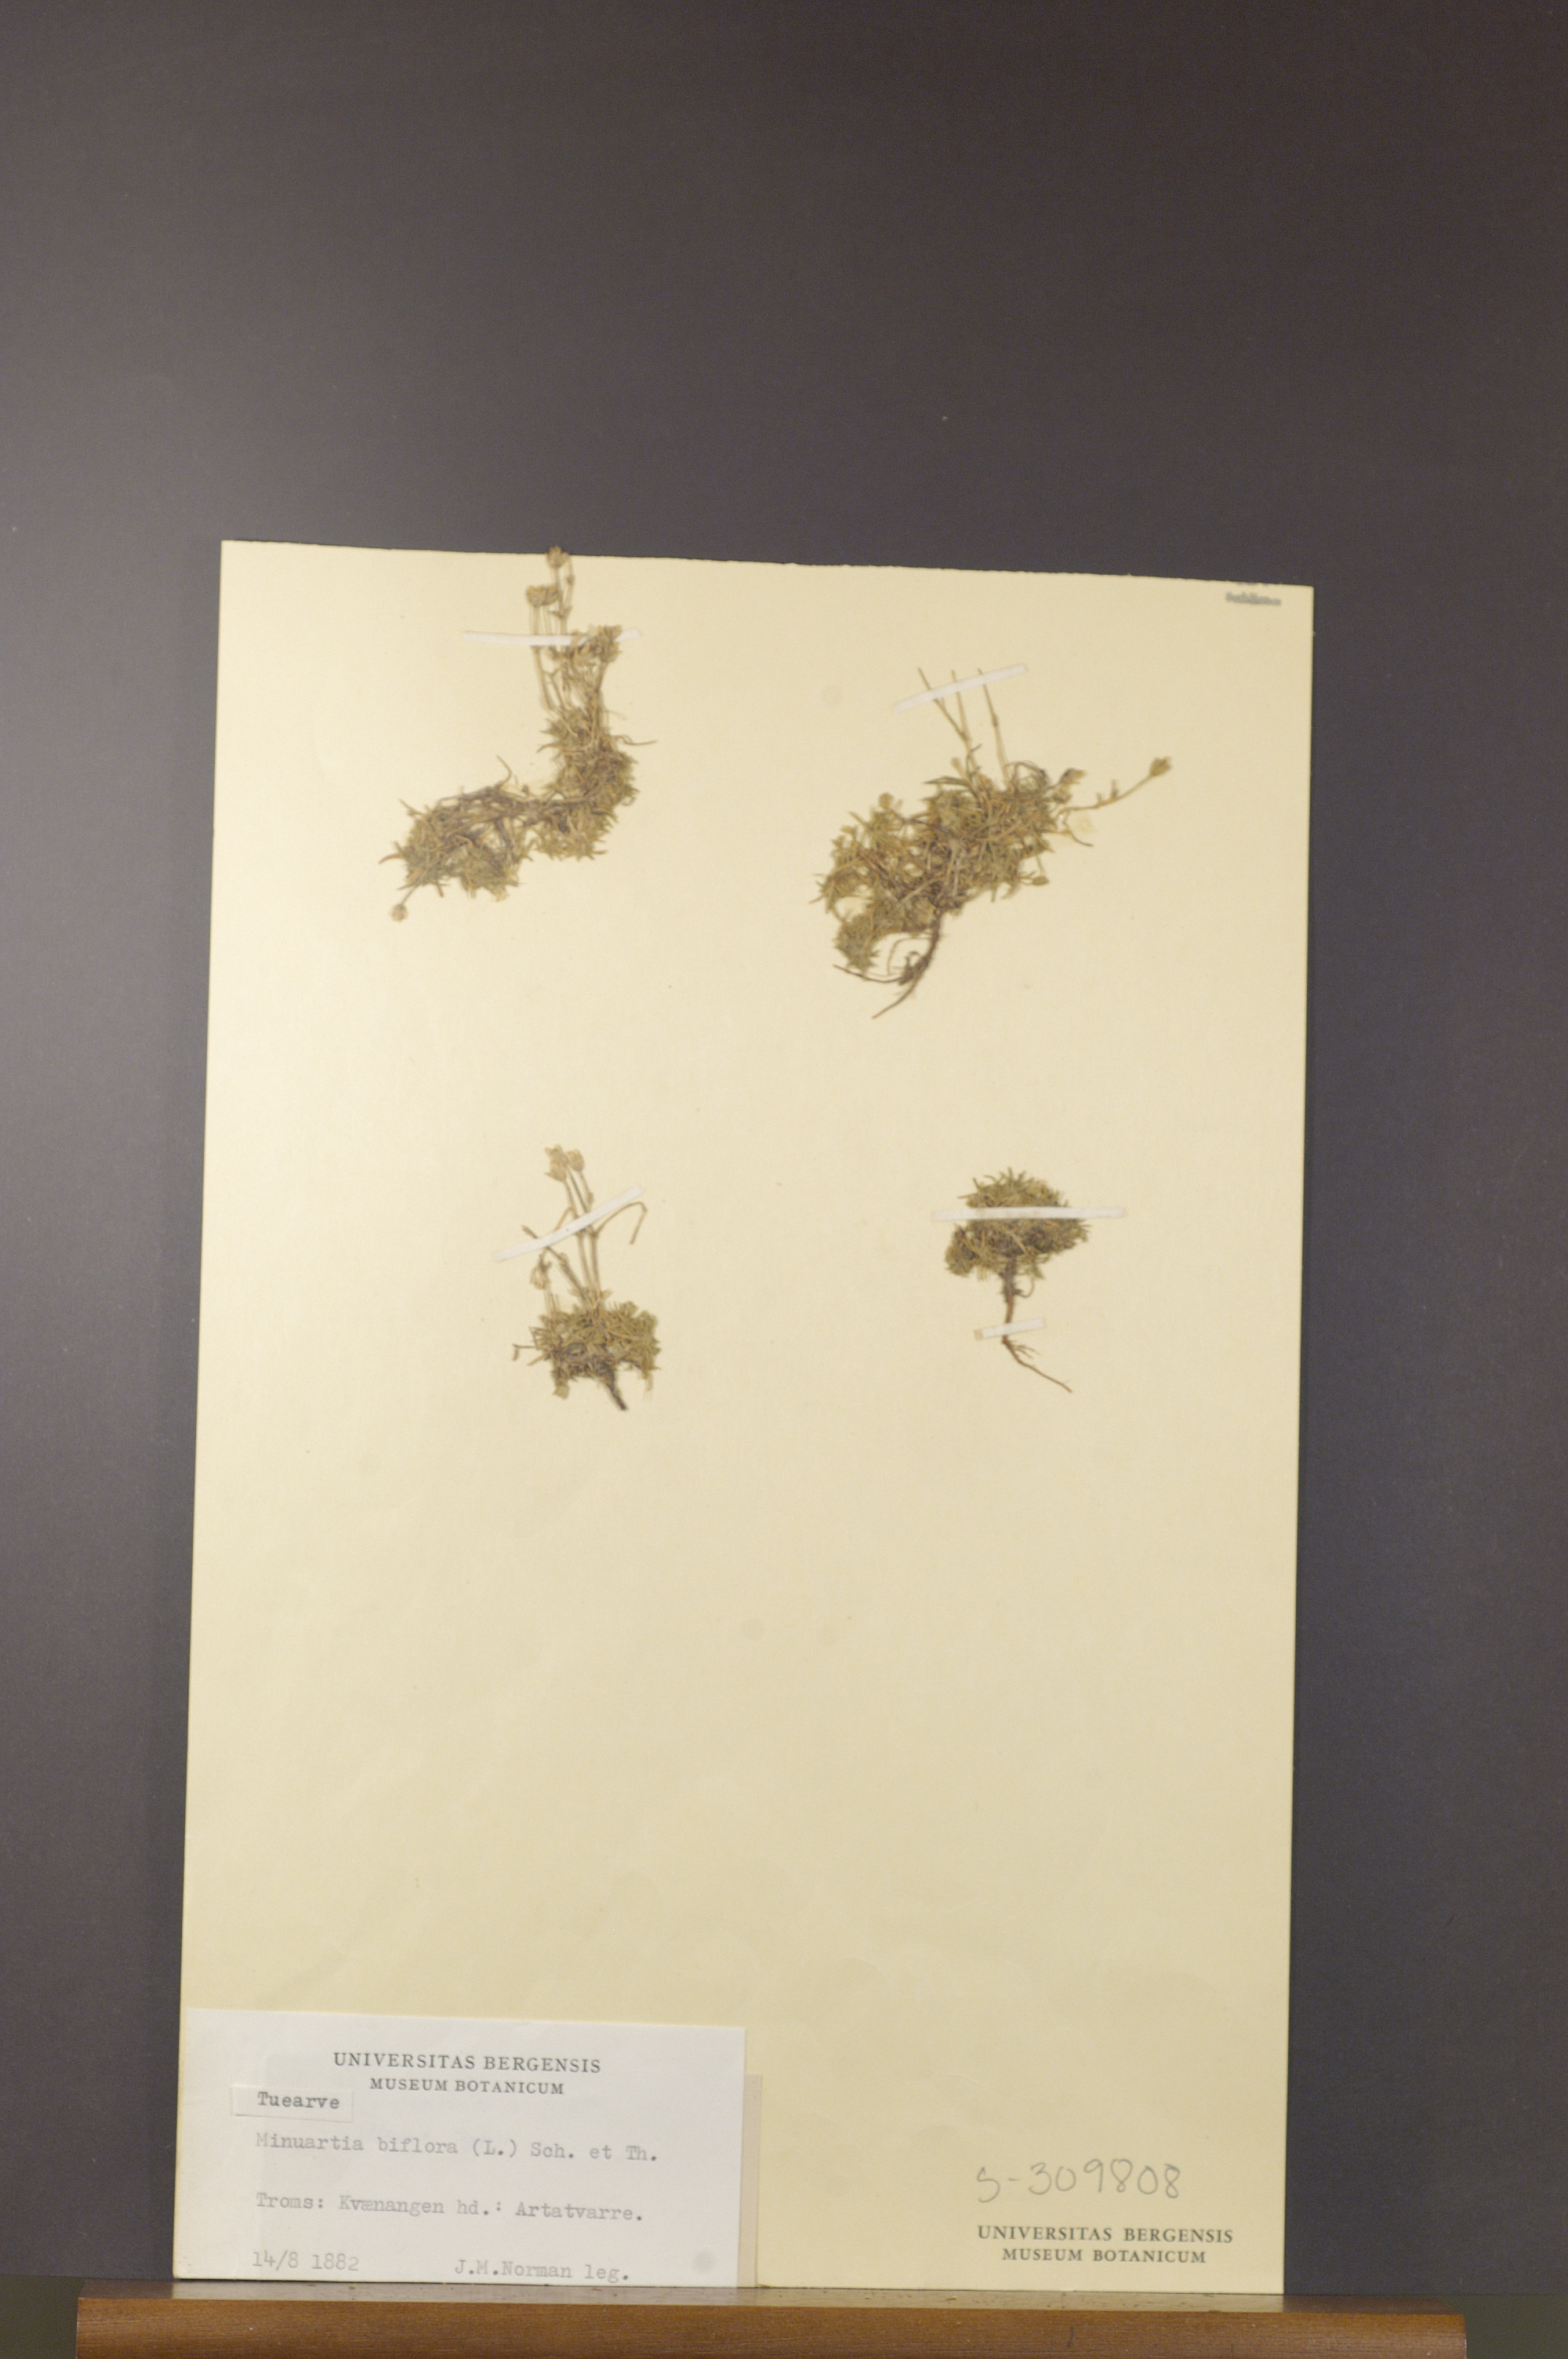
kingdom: Plantae
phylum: Tracheophyta
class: Magnoliopsida
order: Caryophyllales
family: Caryophyllaceae
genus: Cherleria
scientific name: Cherleria biflora
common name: Mountain sandwort
